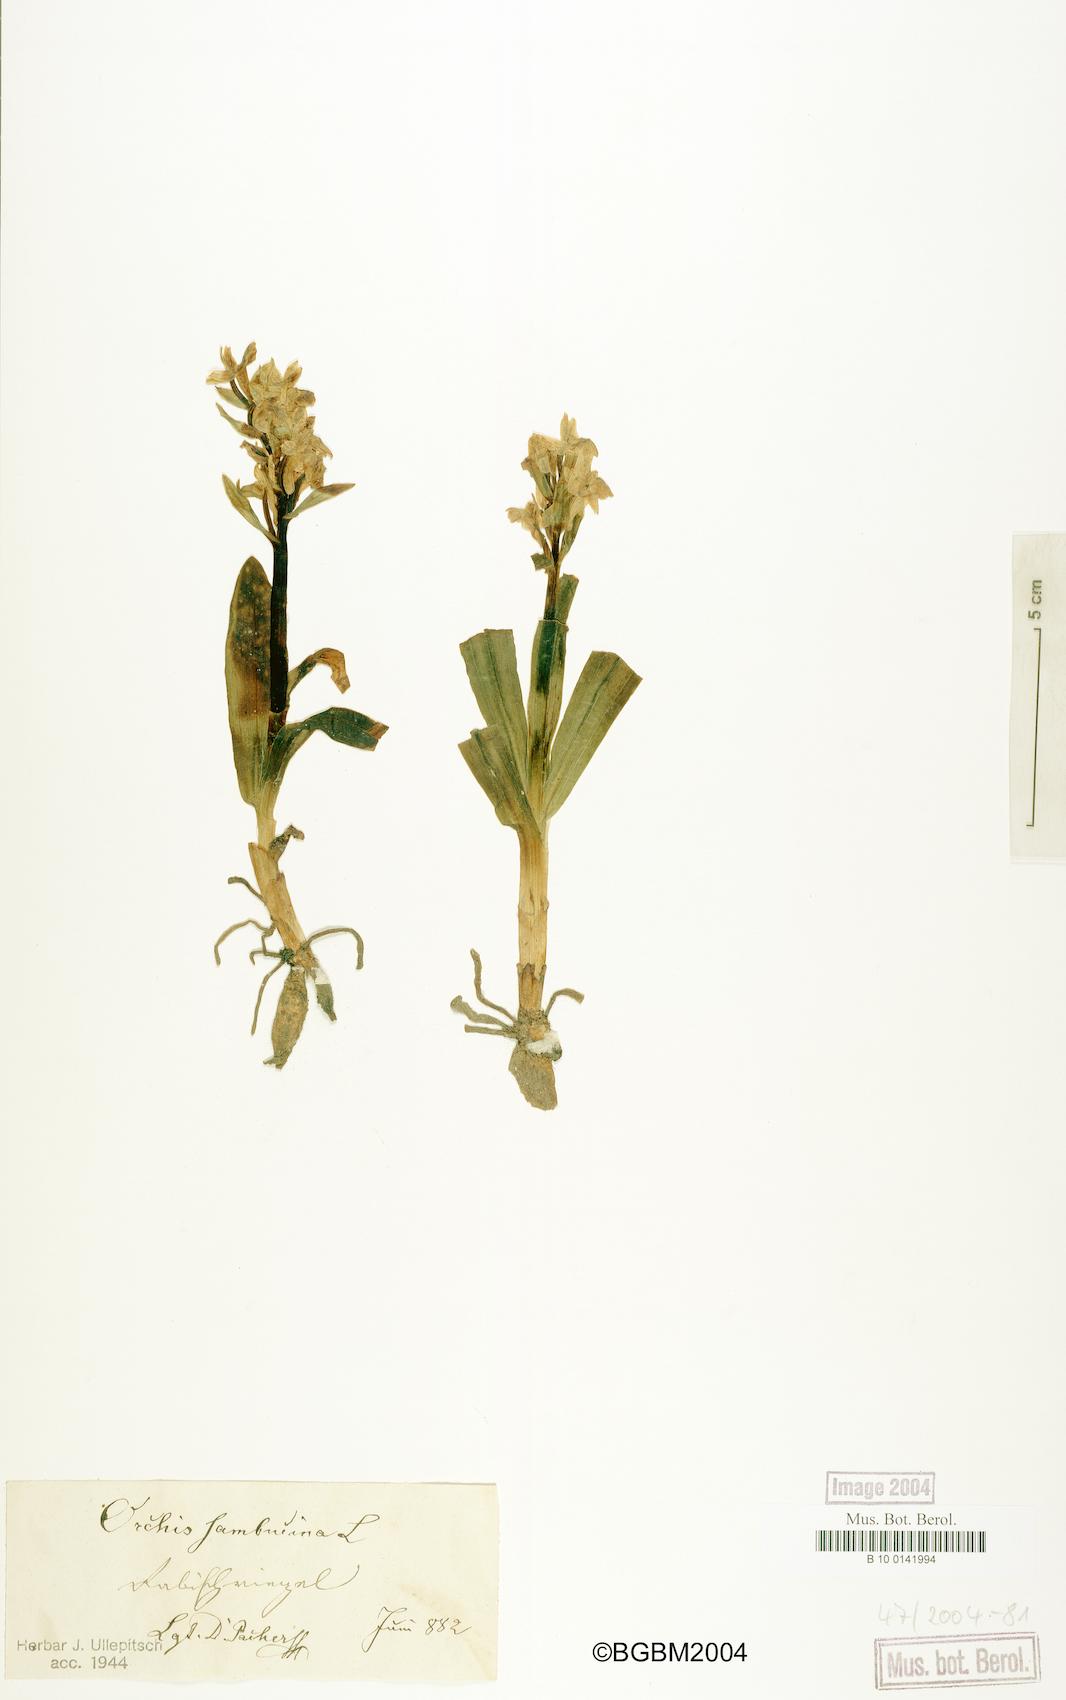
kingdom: Plantae
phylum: Tracheophyta
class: Liliopsida
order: Asparagales
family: Orchidaceae
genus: Dactylorhiza
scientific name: Dactylorhiza sambucina
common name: Elder-flowered orchid
